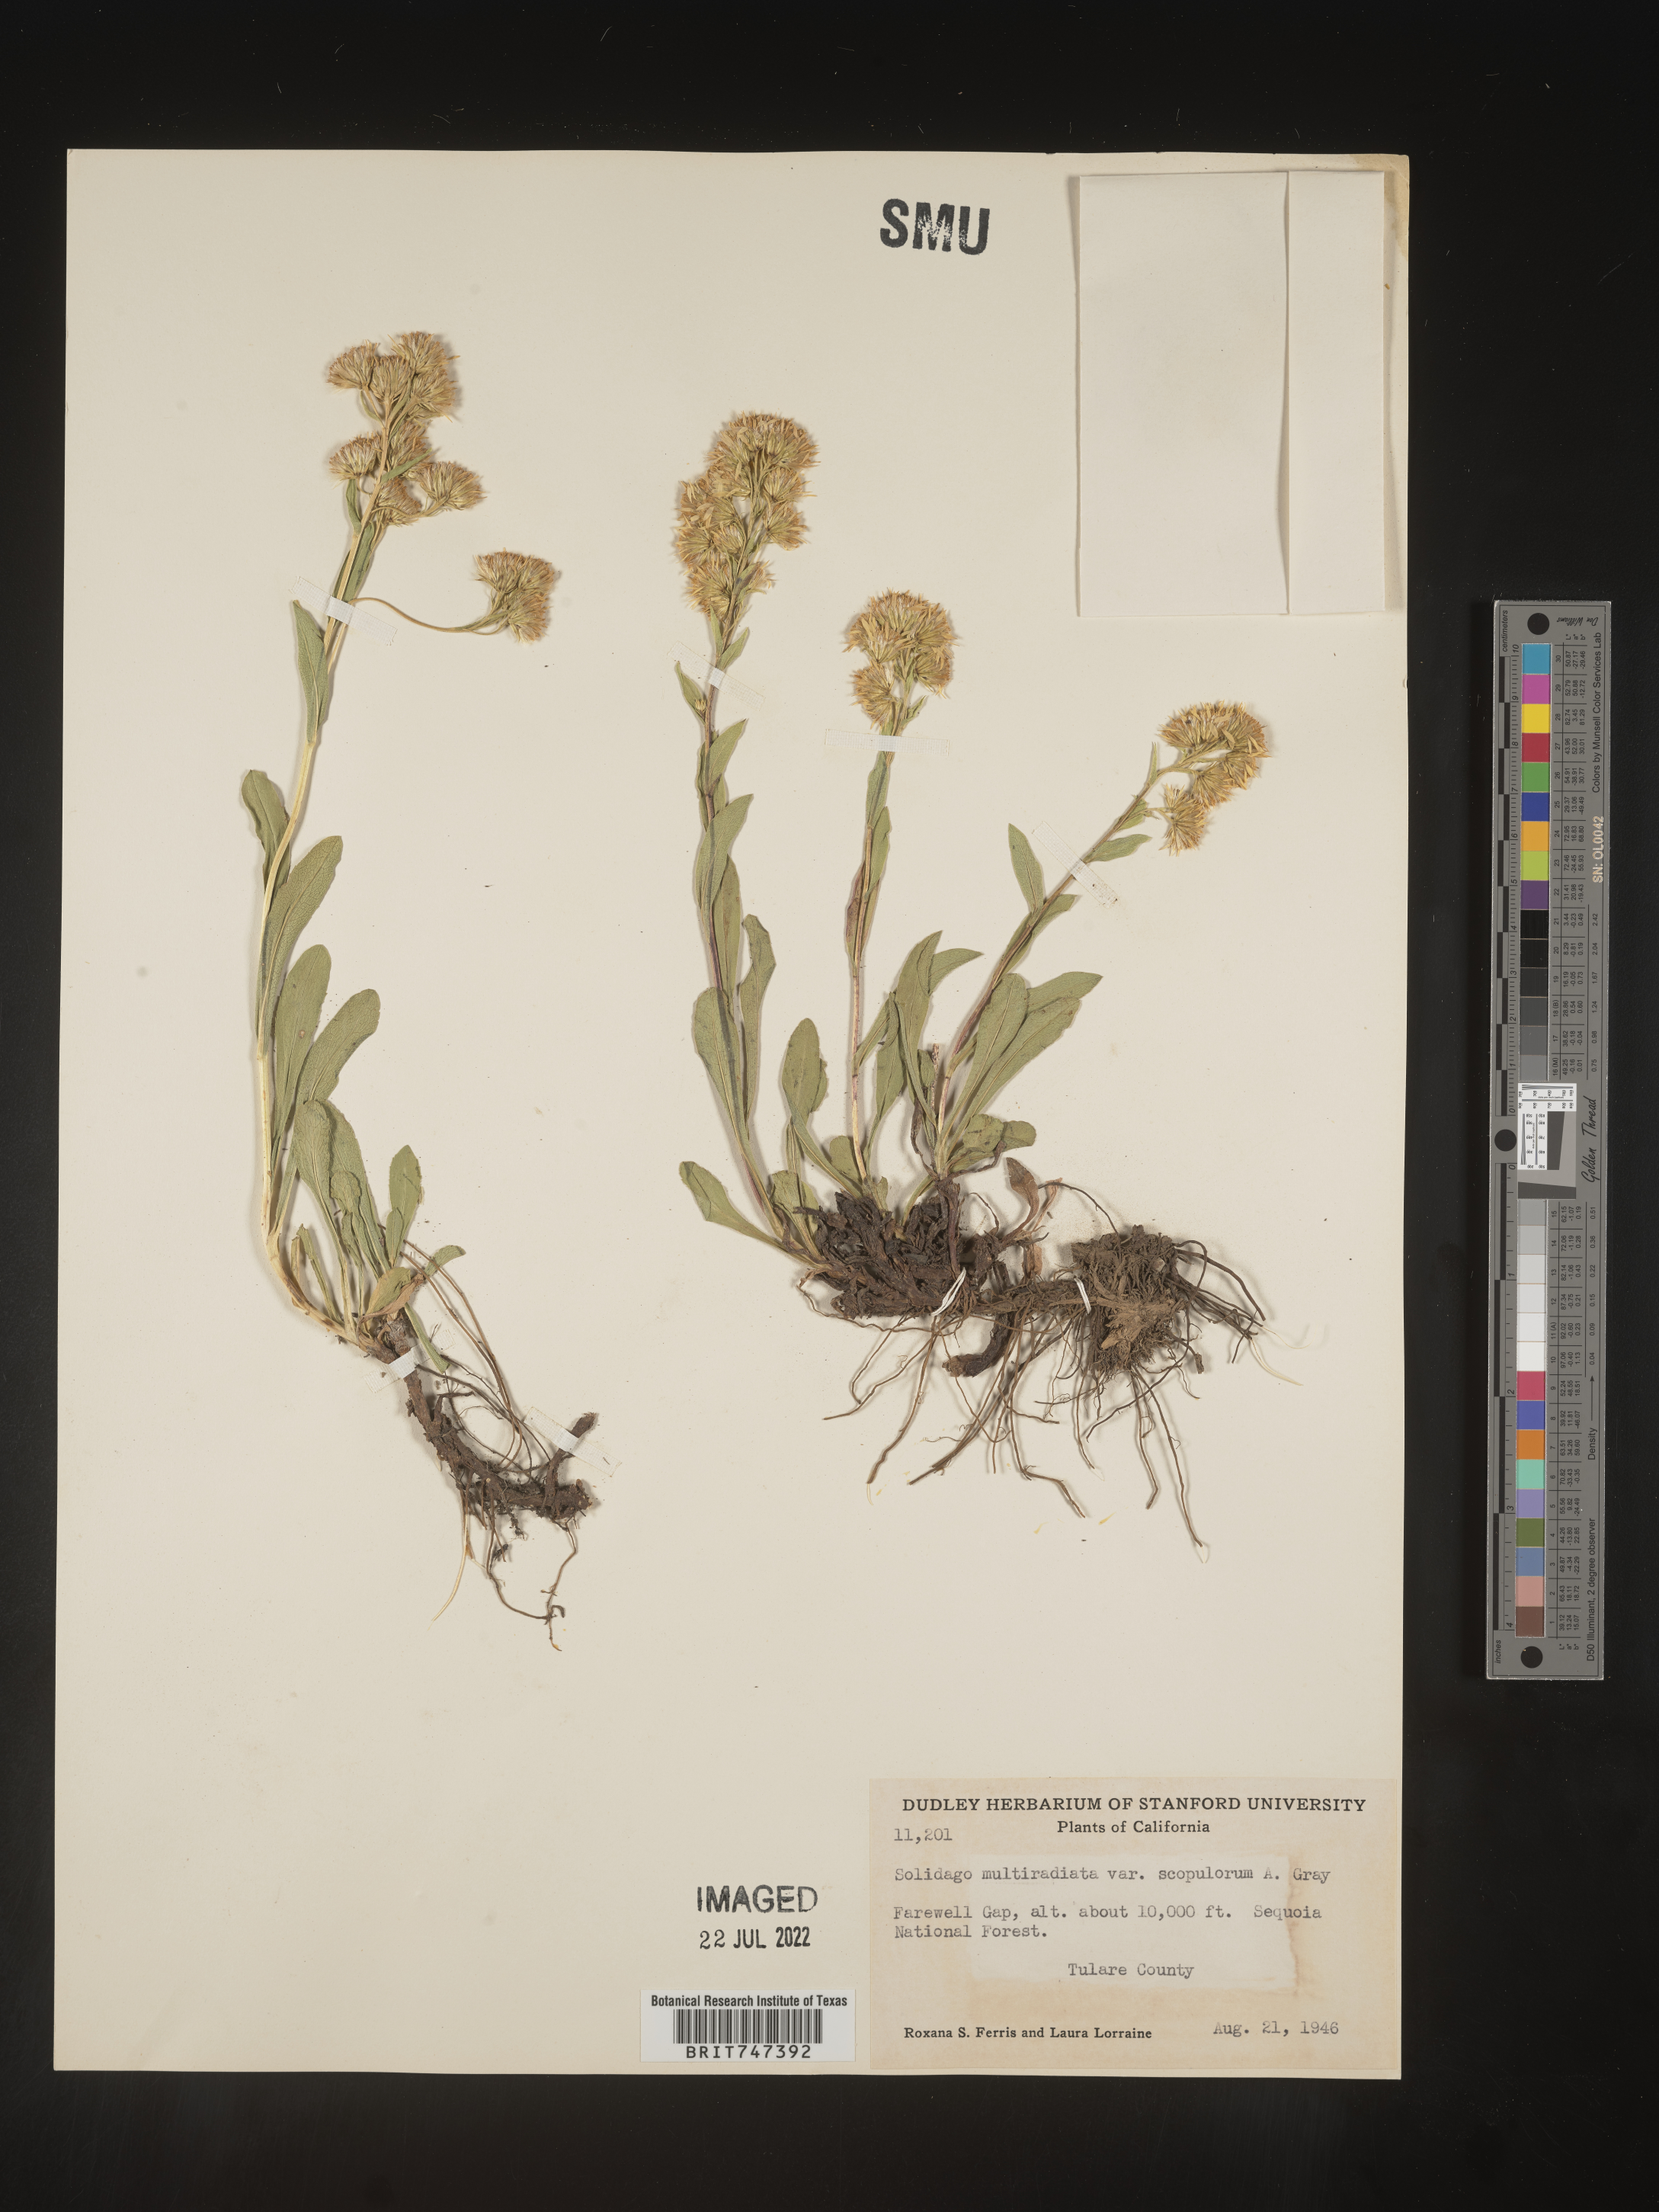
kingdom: Plantae
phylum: Tracheophyta
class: Magnoliopsida
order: Asterales
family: Asteraceae
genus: Solidago
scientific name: Solidago multiradiata
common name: Northern goldenrod
